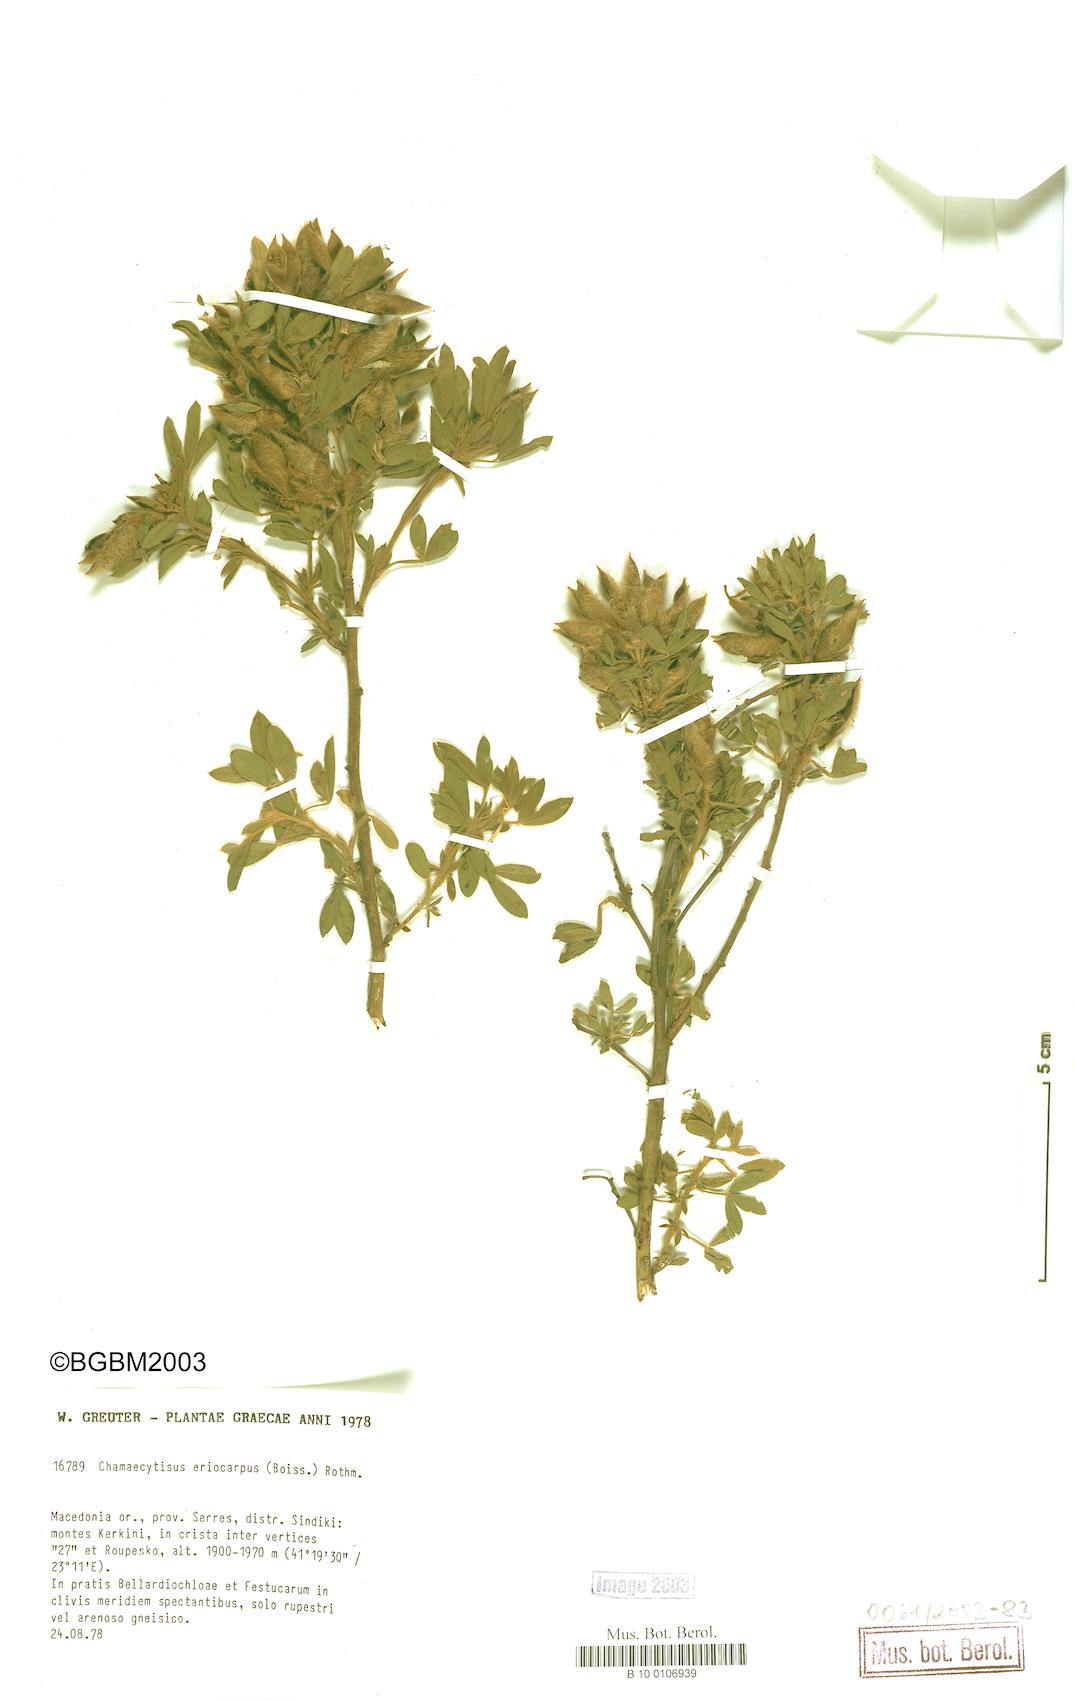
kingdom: Plantae
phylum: Tracheophyta
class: Magnoliopsida
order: Fabales
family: Fabaceae
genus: Chamaecytisus
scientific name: Chamaecytisus eriocarpus
